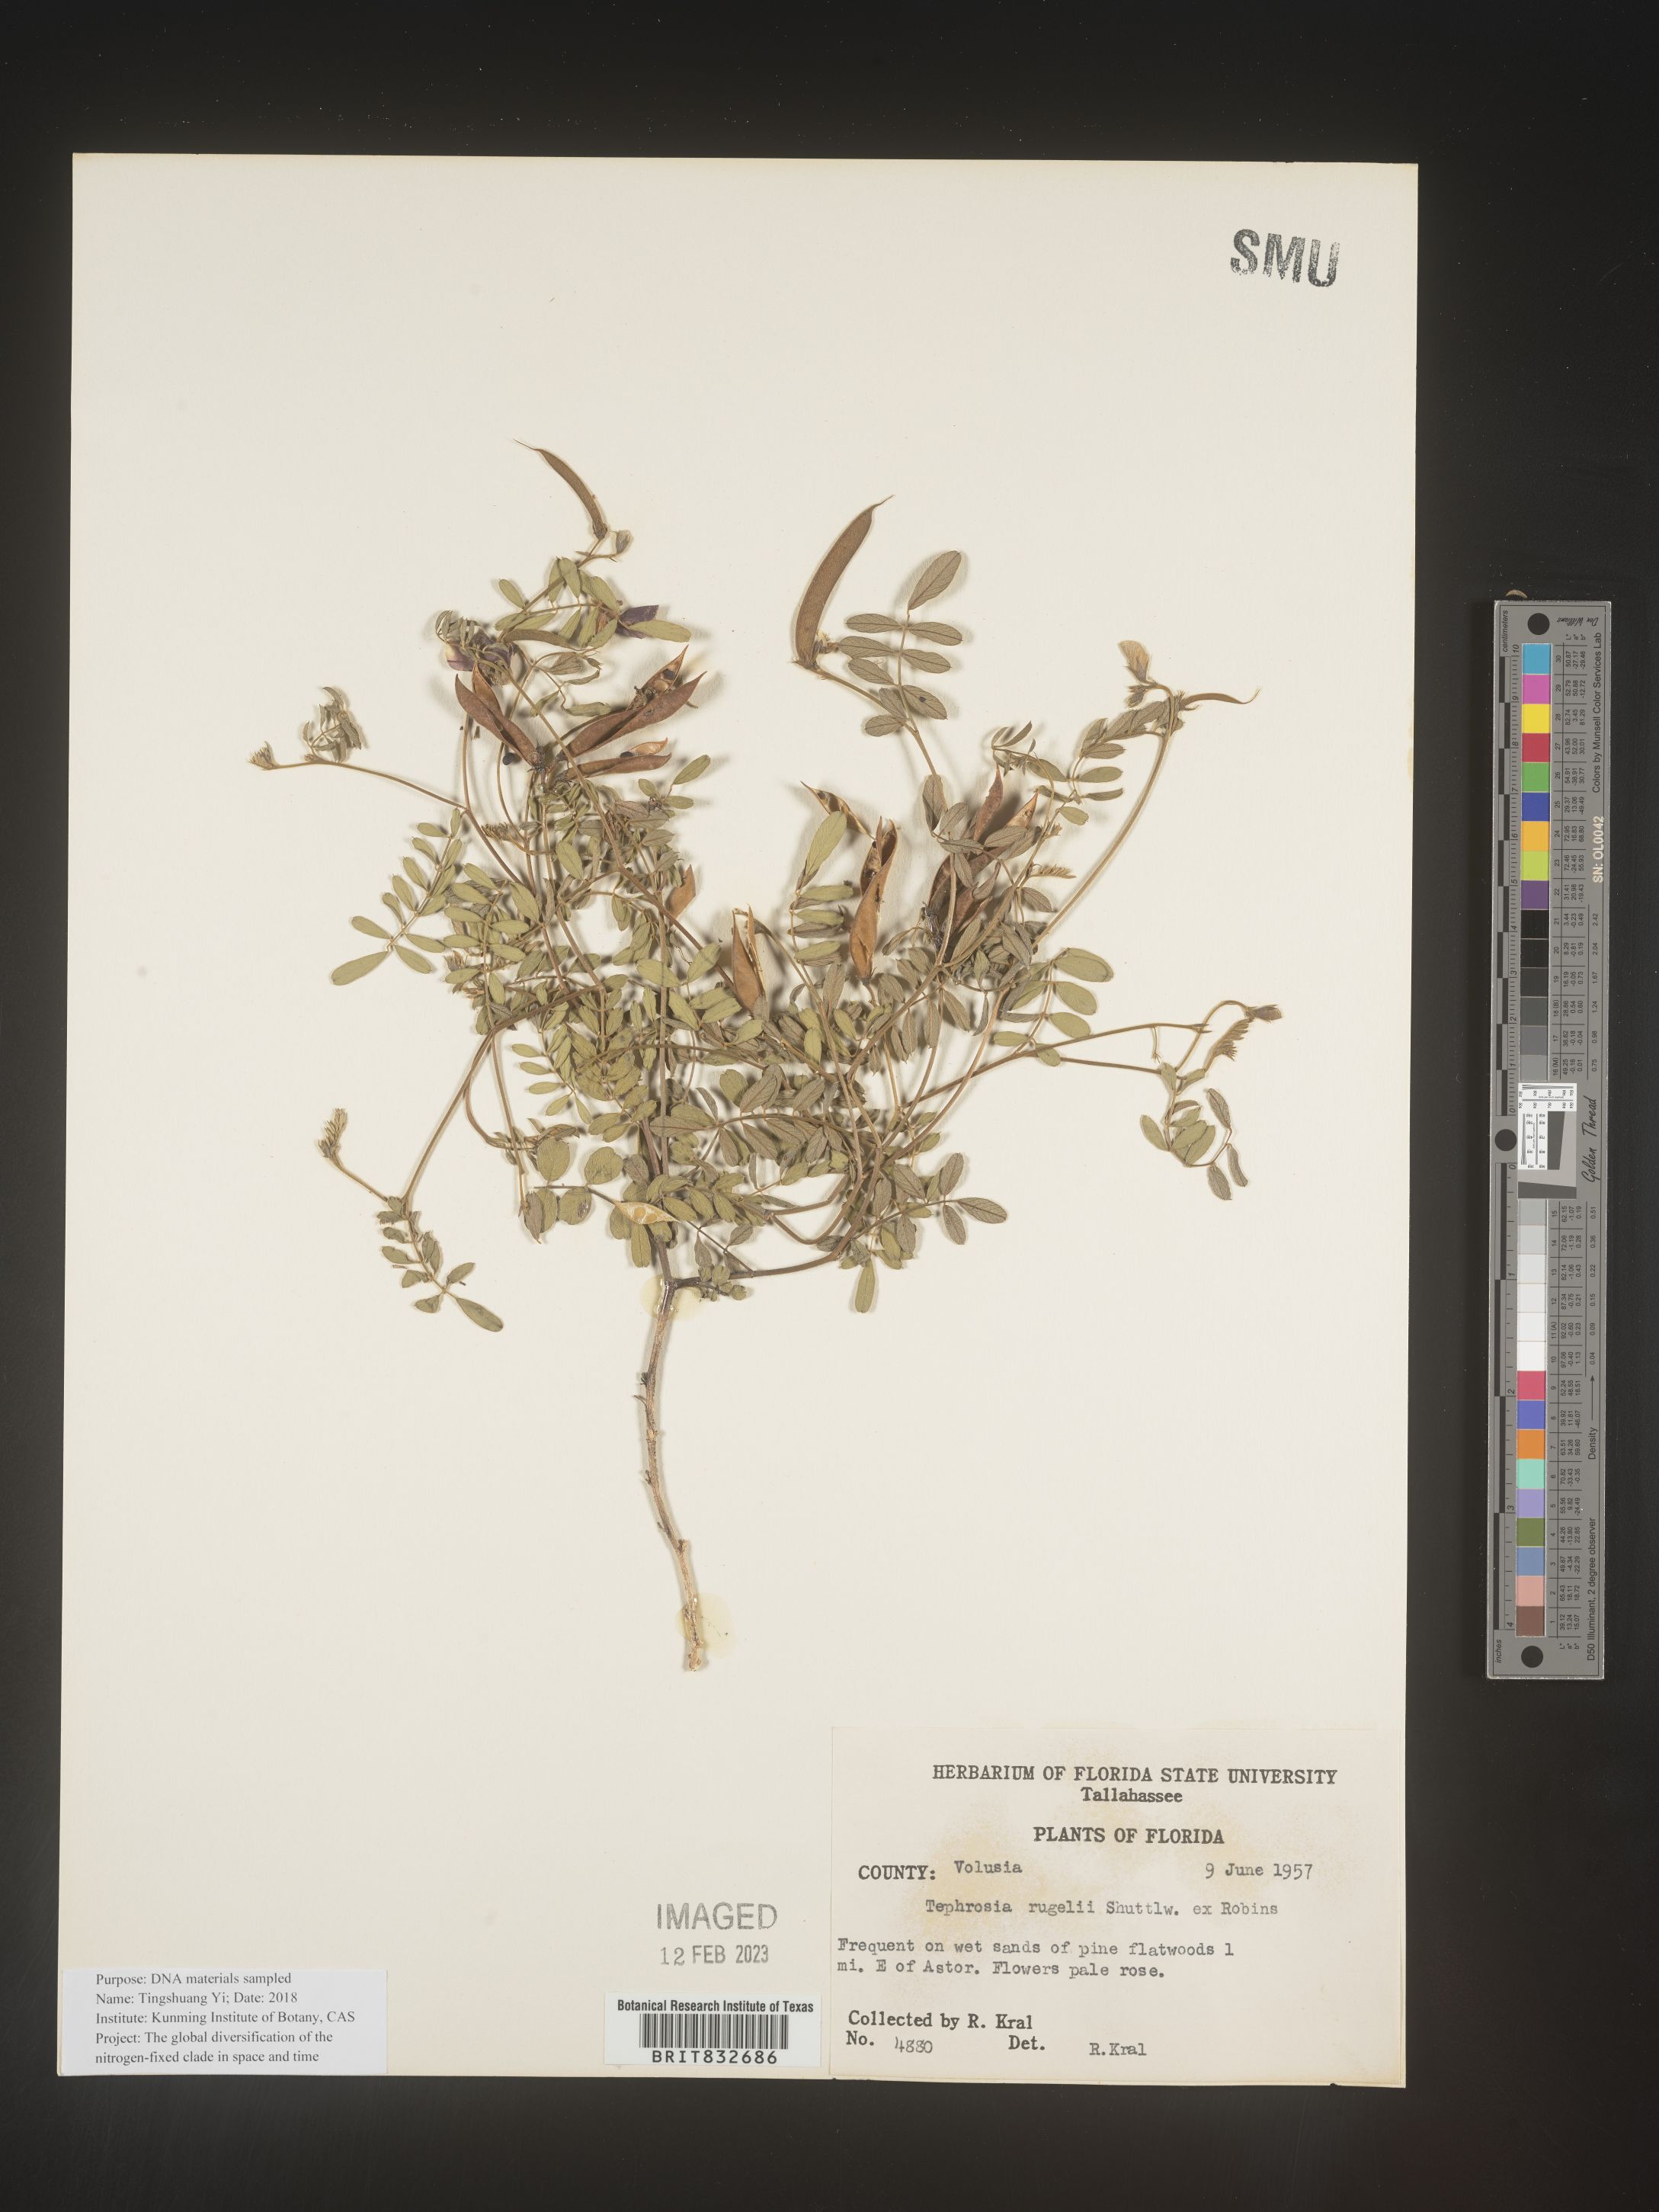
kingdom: Plantae
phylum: Tracheophyta
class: Magnoliopsida
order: Fabales
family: Fabaceae
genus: Tephrosia
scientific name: Tephrosia rugelii
